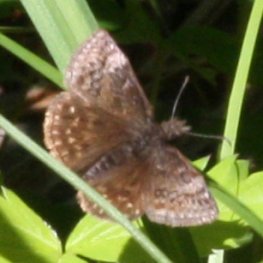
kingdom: Animalia
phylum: Arthropoda
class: Insecta
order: Lepidoptera
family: Hesperiidae
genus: Erynnis
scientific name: Erynnis icelus
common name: Dreamy Duskywing
